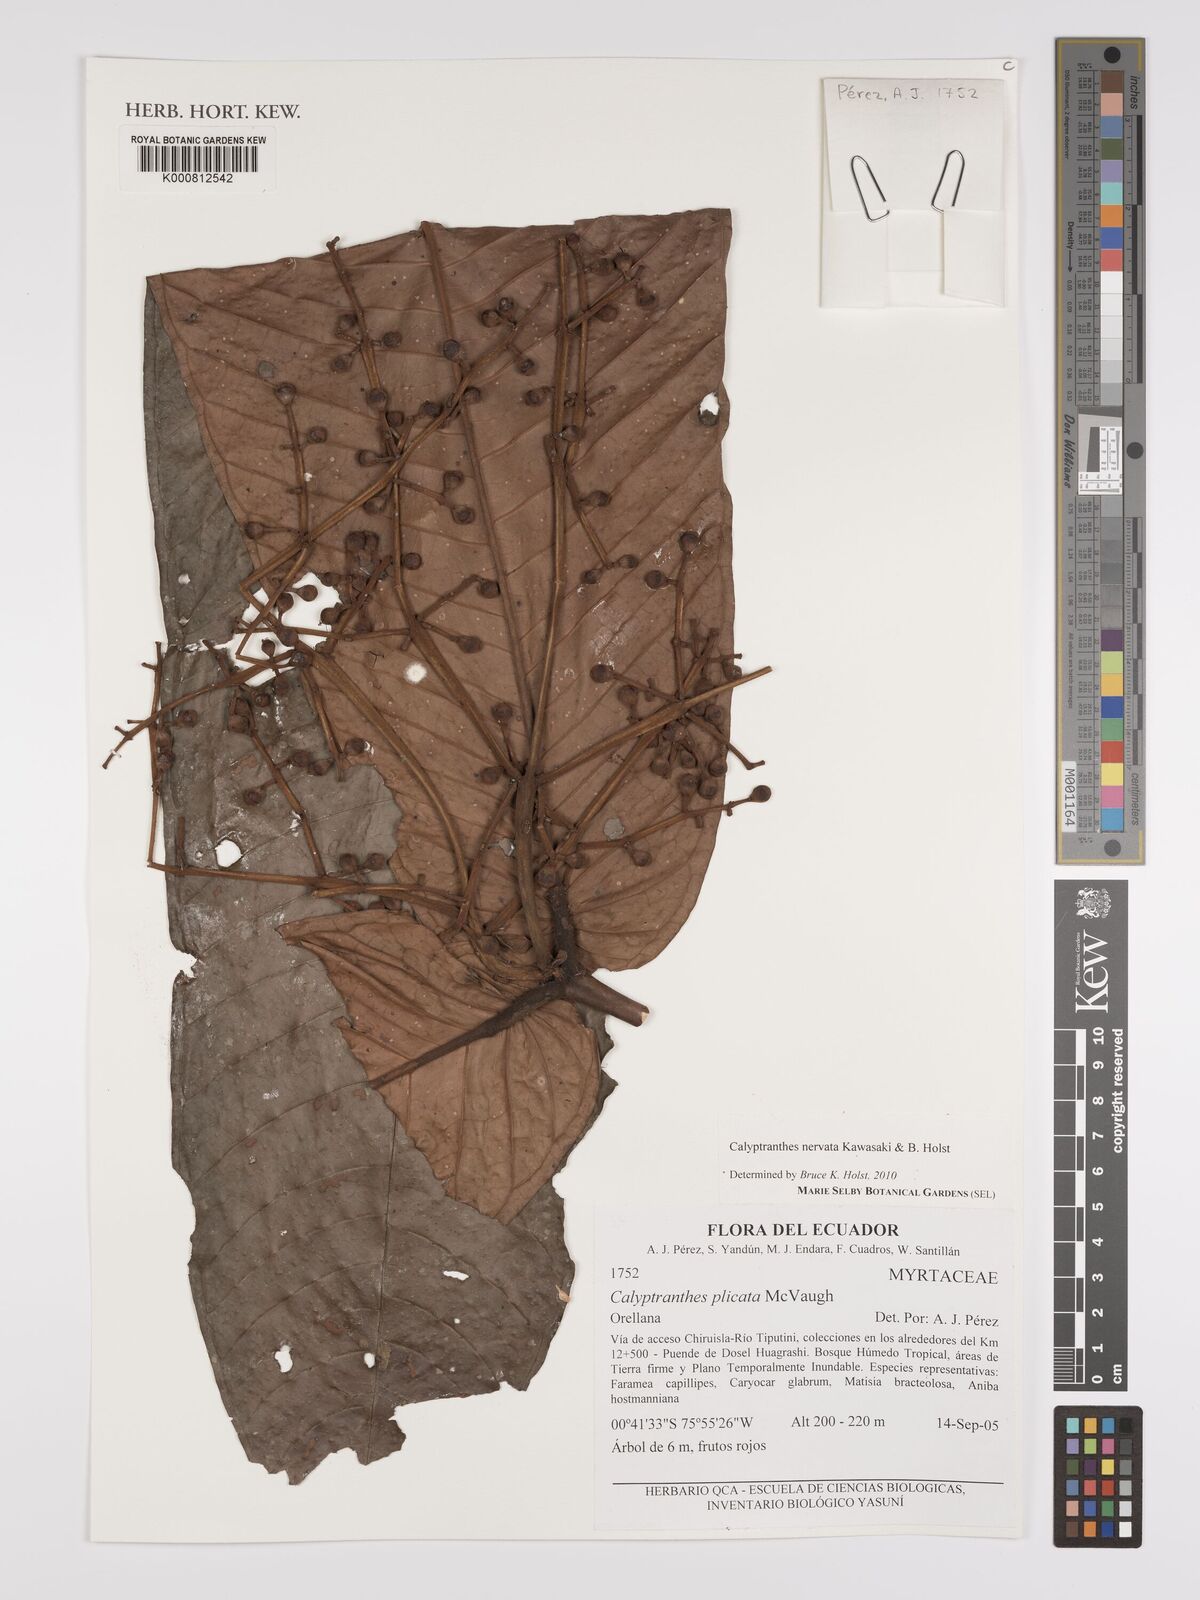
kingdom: Plantae
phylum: Tracheophyta
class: Magnoliopsida
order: Myrtales
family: Myrtaceae
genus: Myrcia
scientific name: Myrcia nervata
